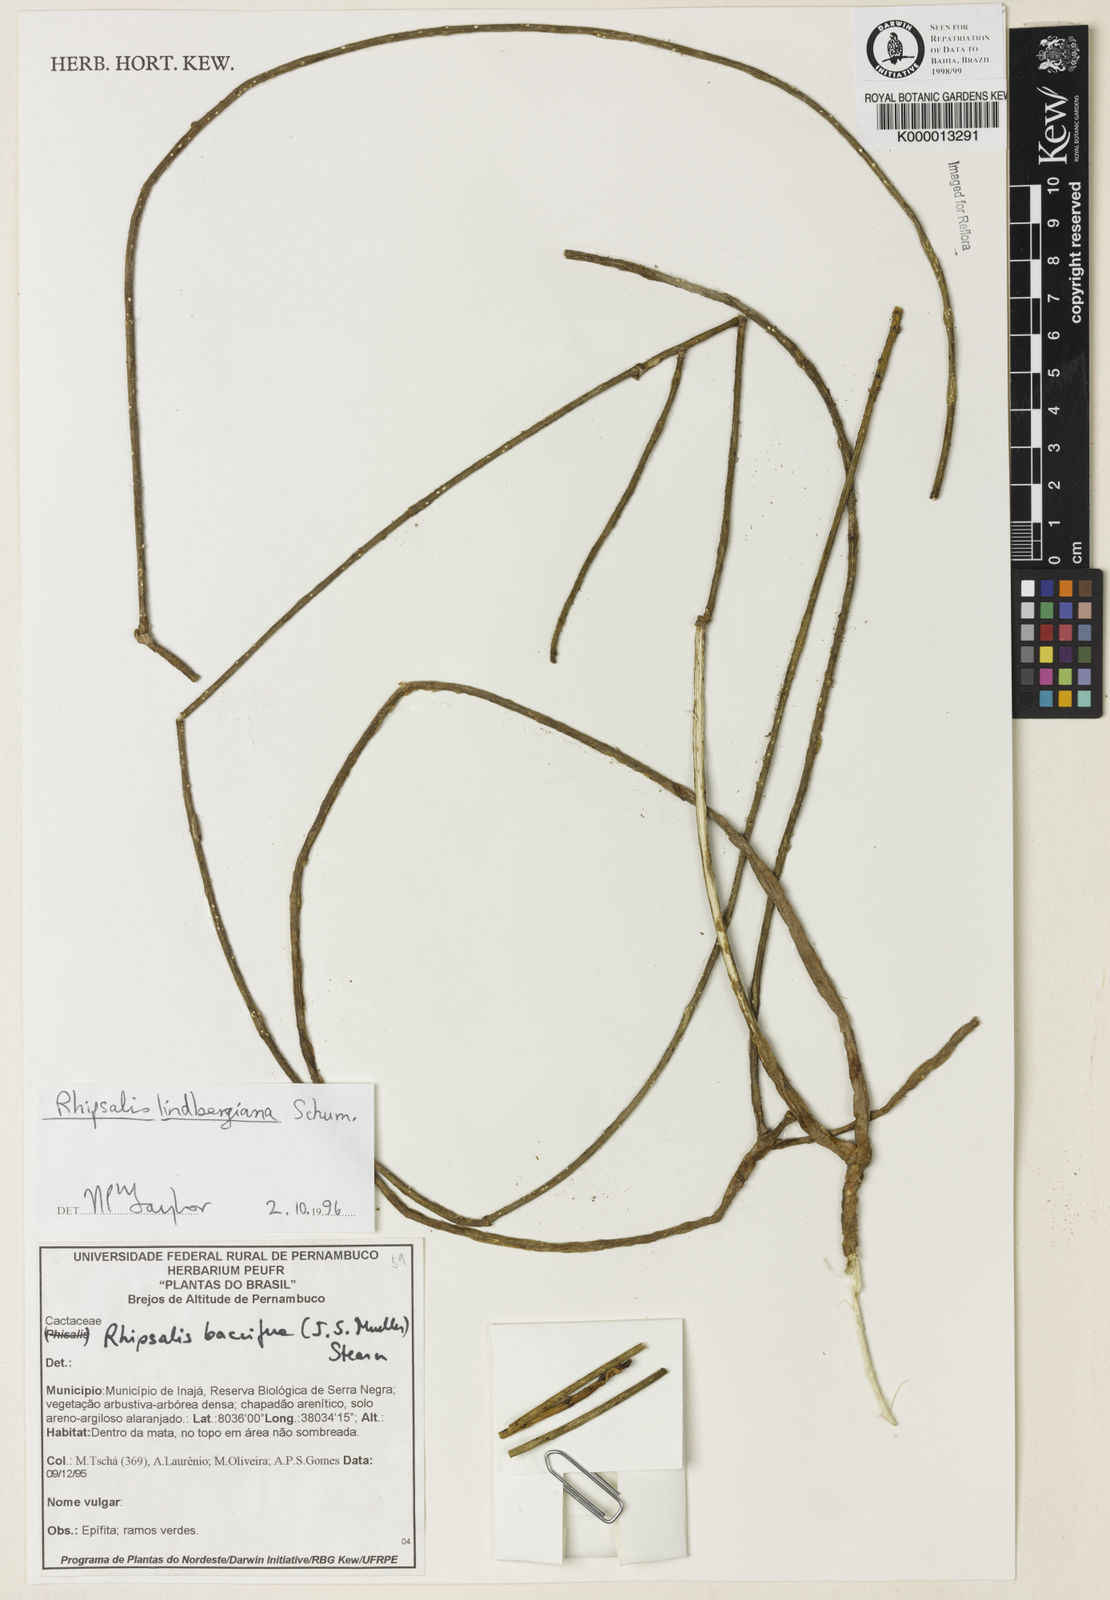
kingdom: Plantae
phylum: Tracheophyta
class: Magnoliopsida
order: Caryophyllales
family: Cactaceae
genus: Rhipsalis
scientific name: Rhipsalis
